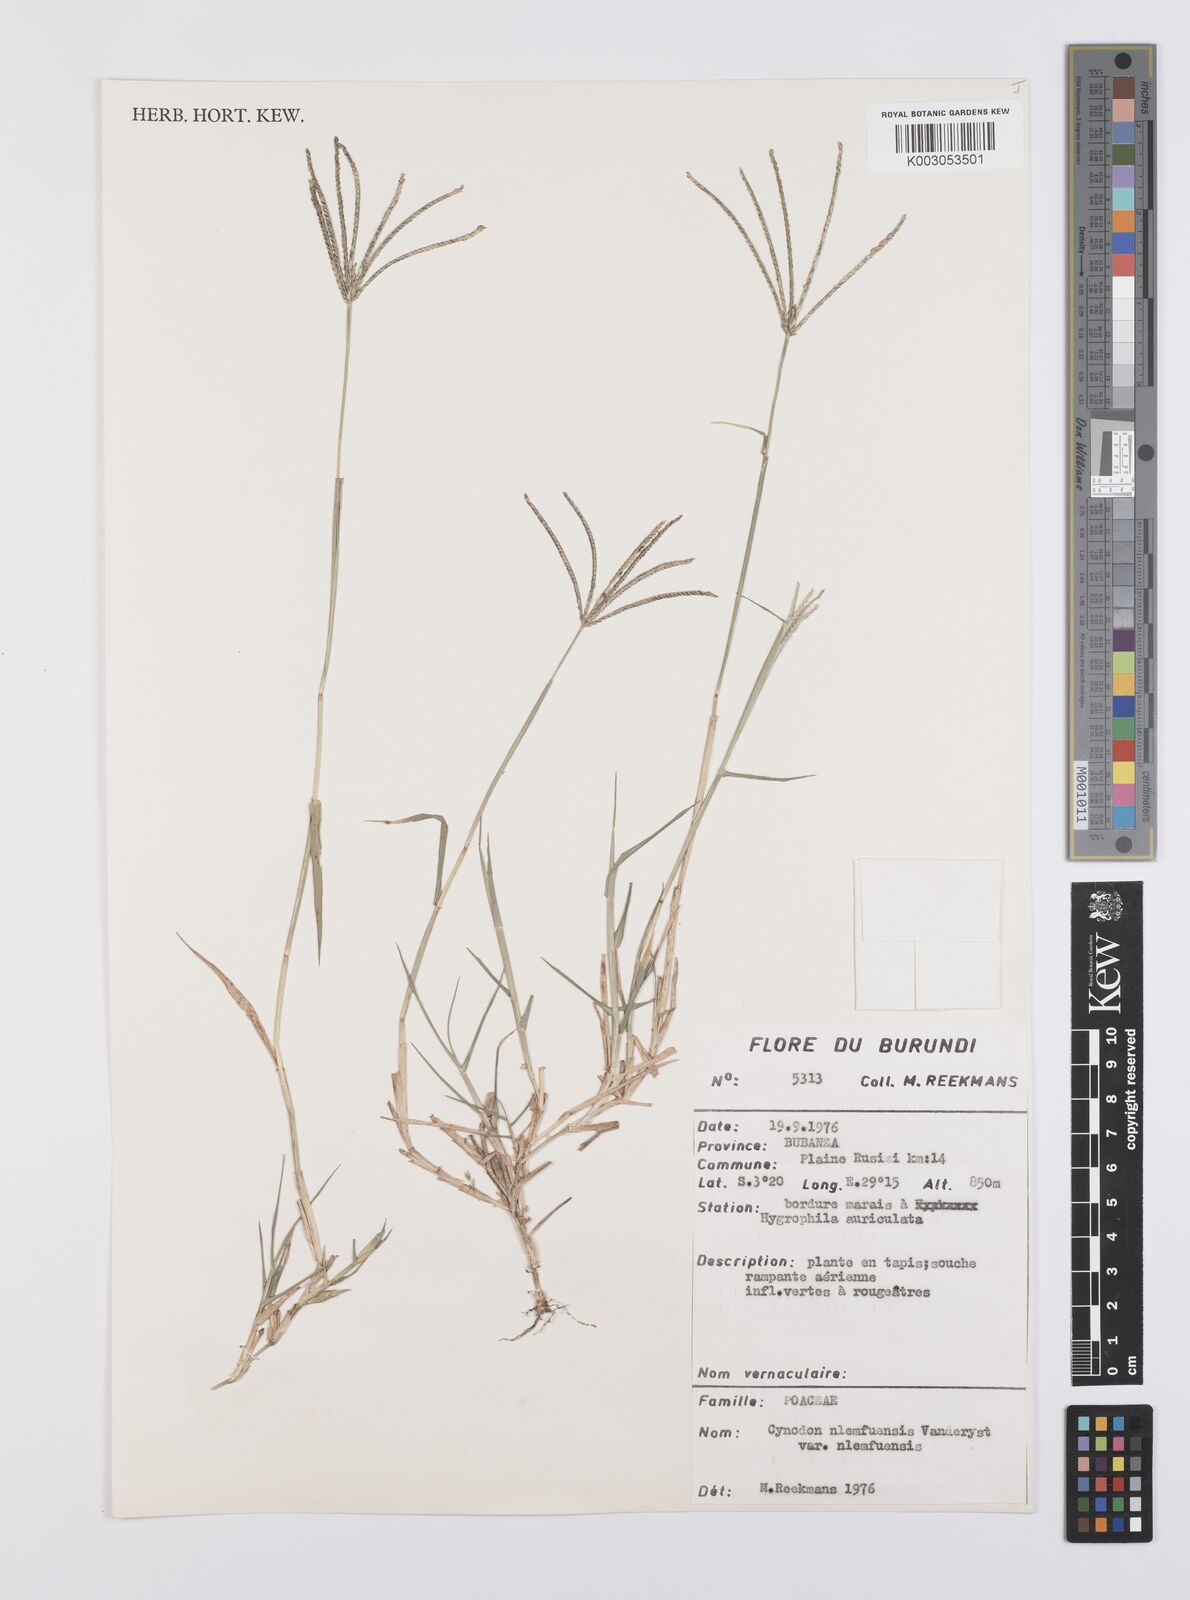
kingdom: Plantae
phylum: Tracheophyta
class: Liliopsida
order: Poales
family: Poaceae
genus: Cynodon
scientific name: Cynodon nlemfuensis
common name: African bermudagrass
